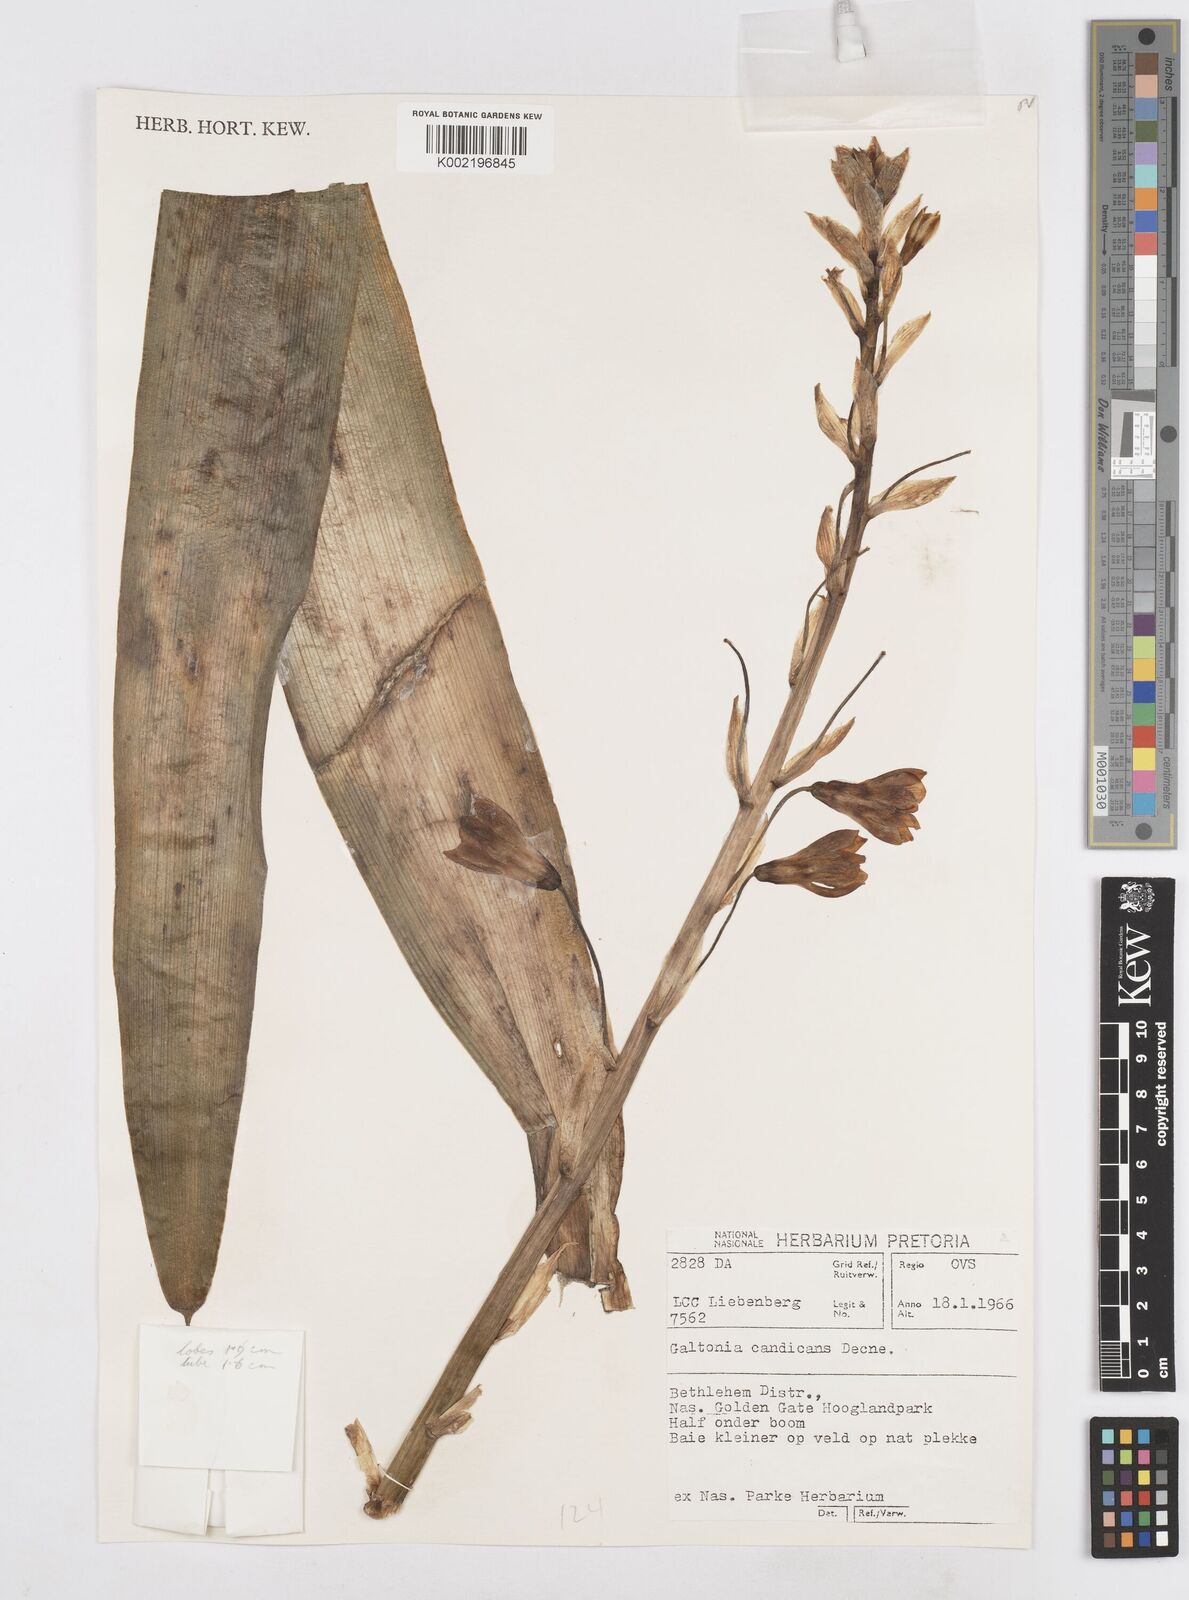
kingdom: Plantae
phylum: Tracheophyta
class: Liliopsida
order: Asparagales
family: Asparagaceae
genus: Ornithogalum
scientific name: Ornithogalum candicans
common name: Summer-hyacinth
